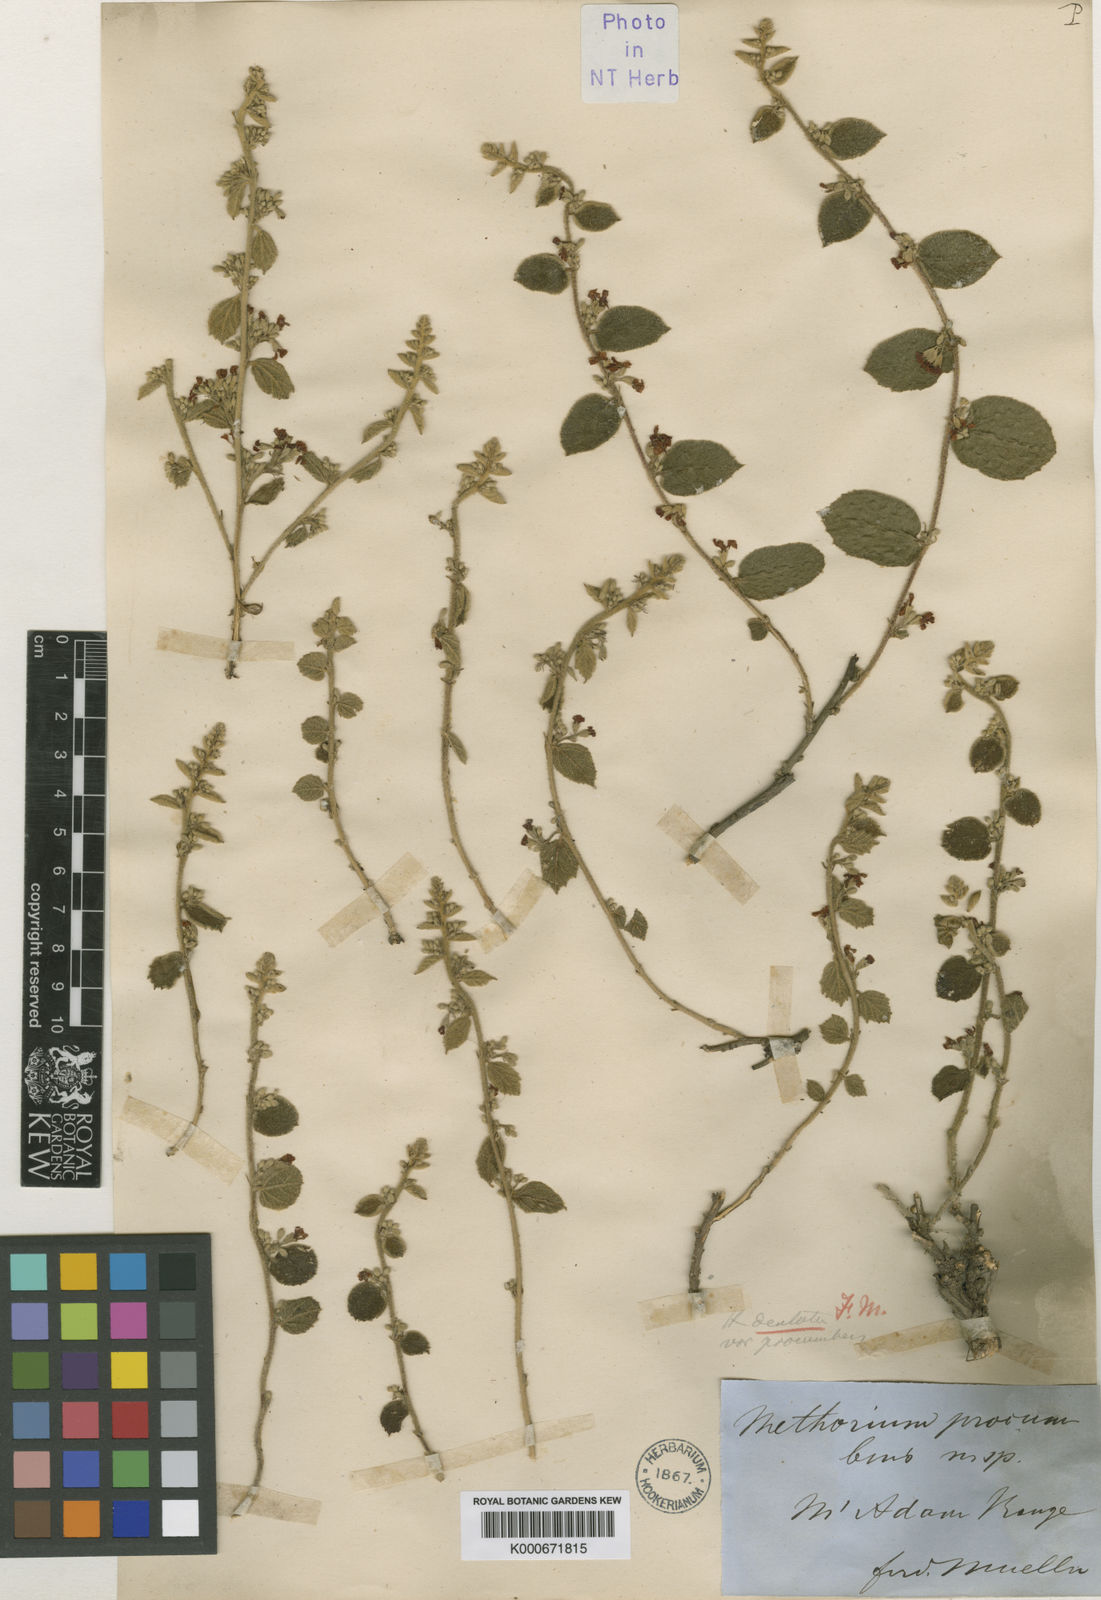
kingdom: Plantae
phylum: Tracheophyta
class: Magnoliopsida
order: Malvales
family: Malvaceae
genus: Helicteres
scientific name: Helicteres procumbens
